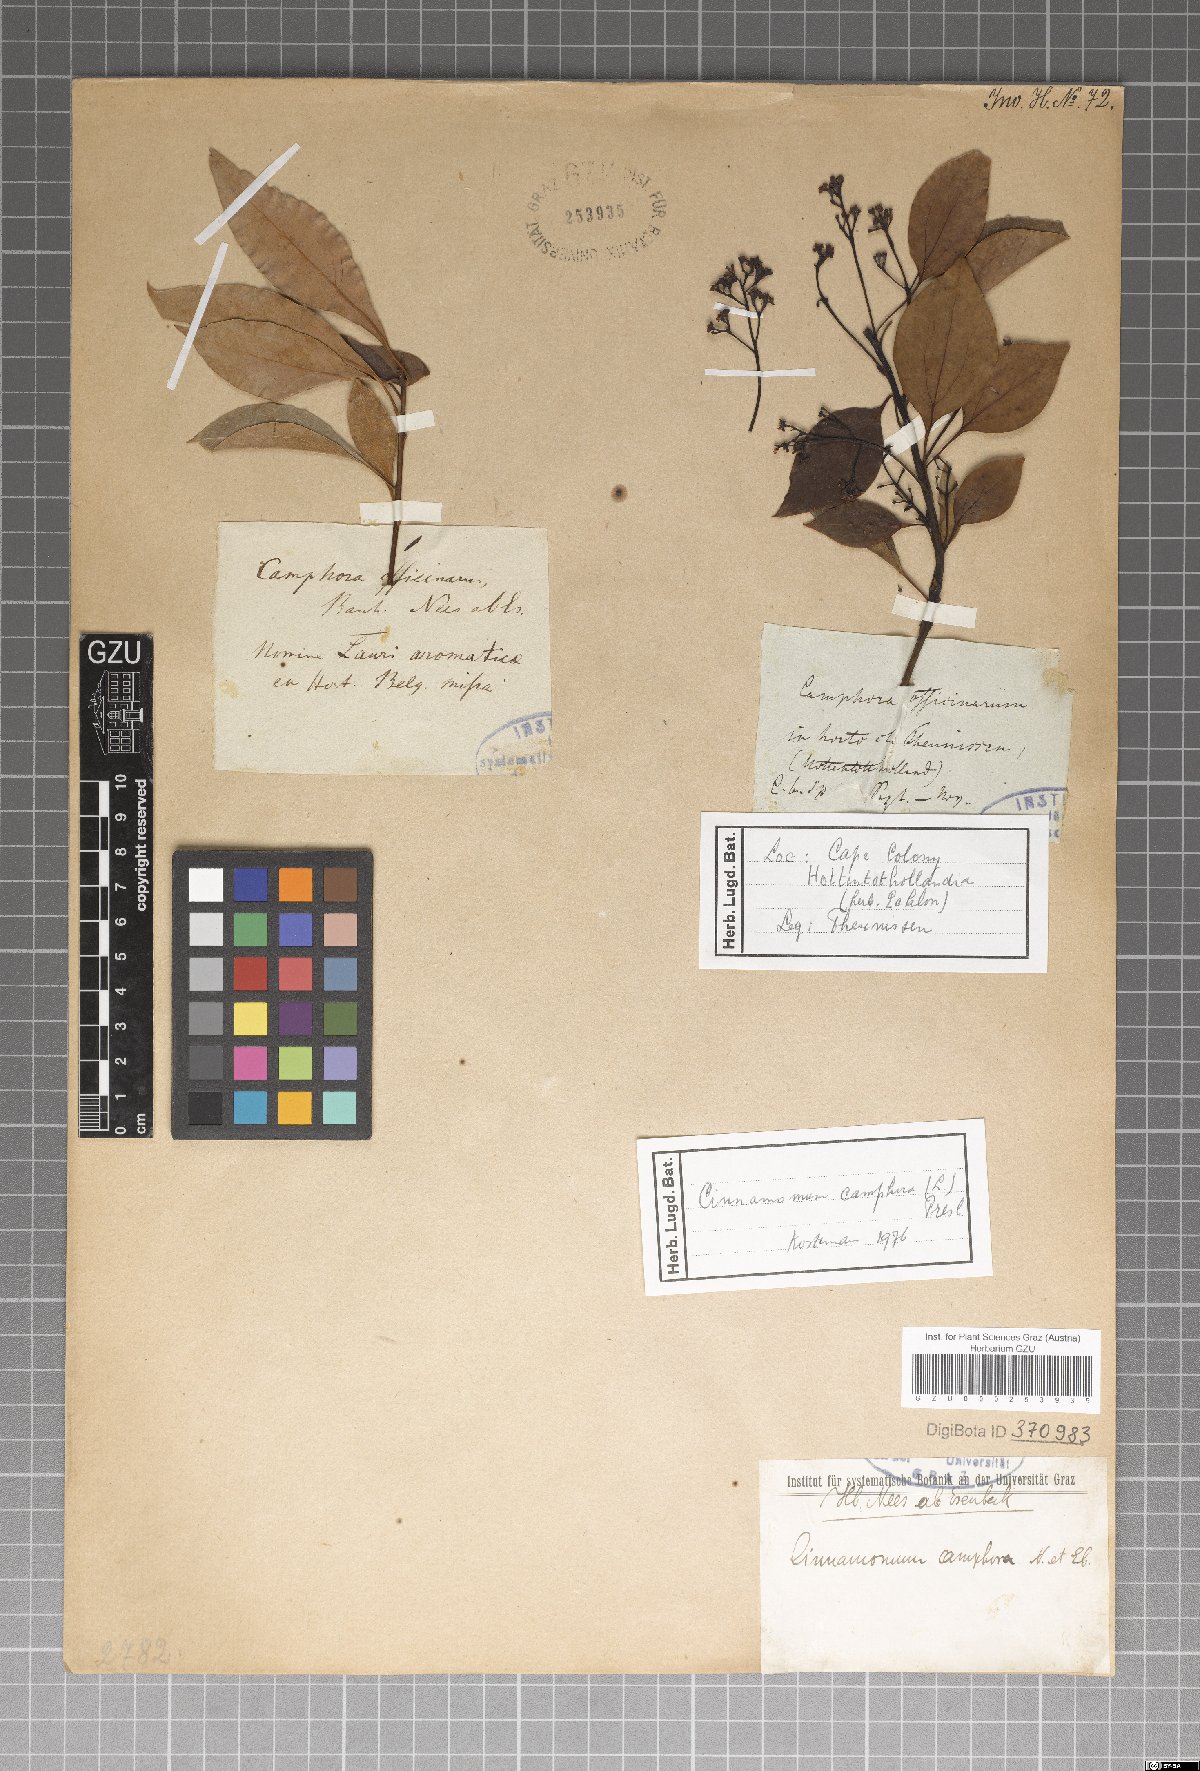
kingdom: Plantae
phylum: Tracheophyta
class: Magnoliopsida
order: Laurales
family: Lauraceae
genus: Cinnamomum
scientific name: Cinnamomum camphora
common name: Camphortree
